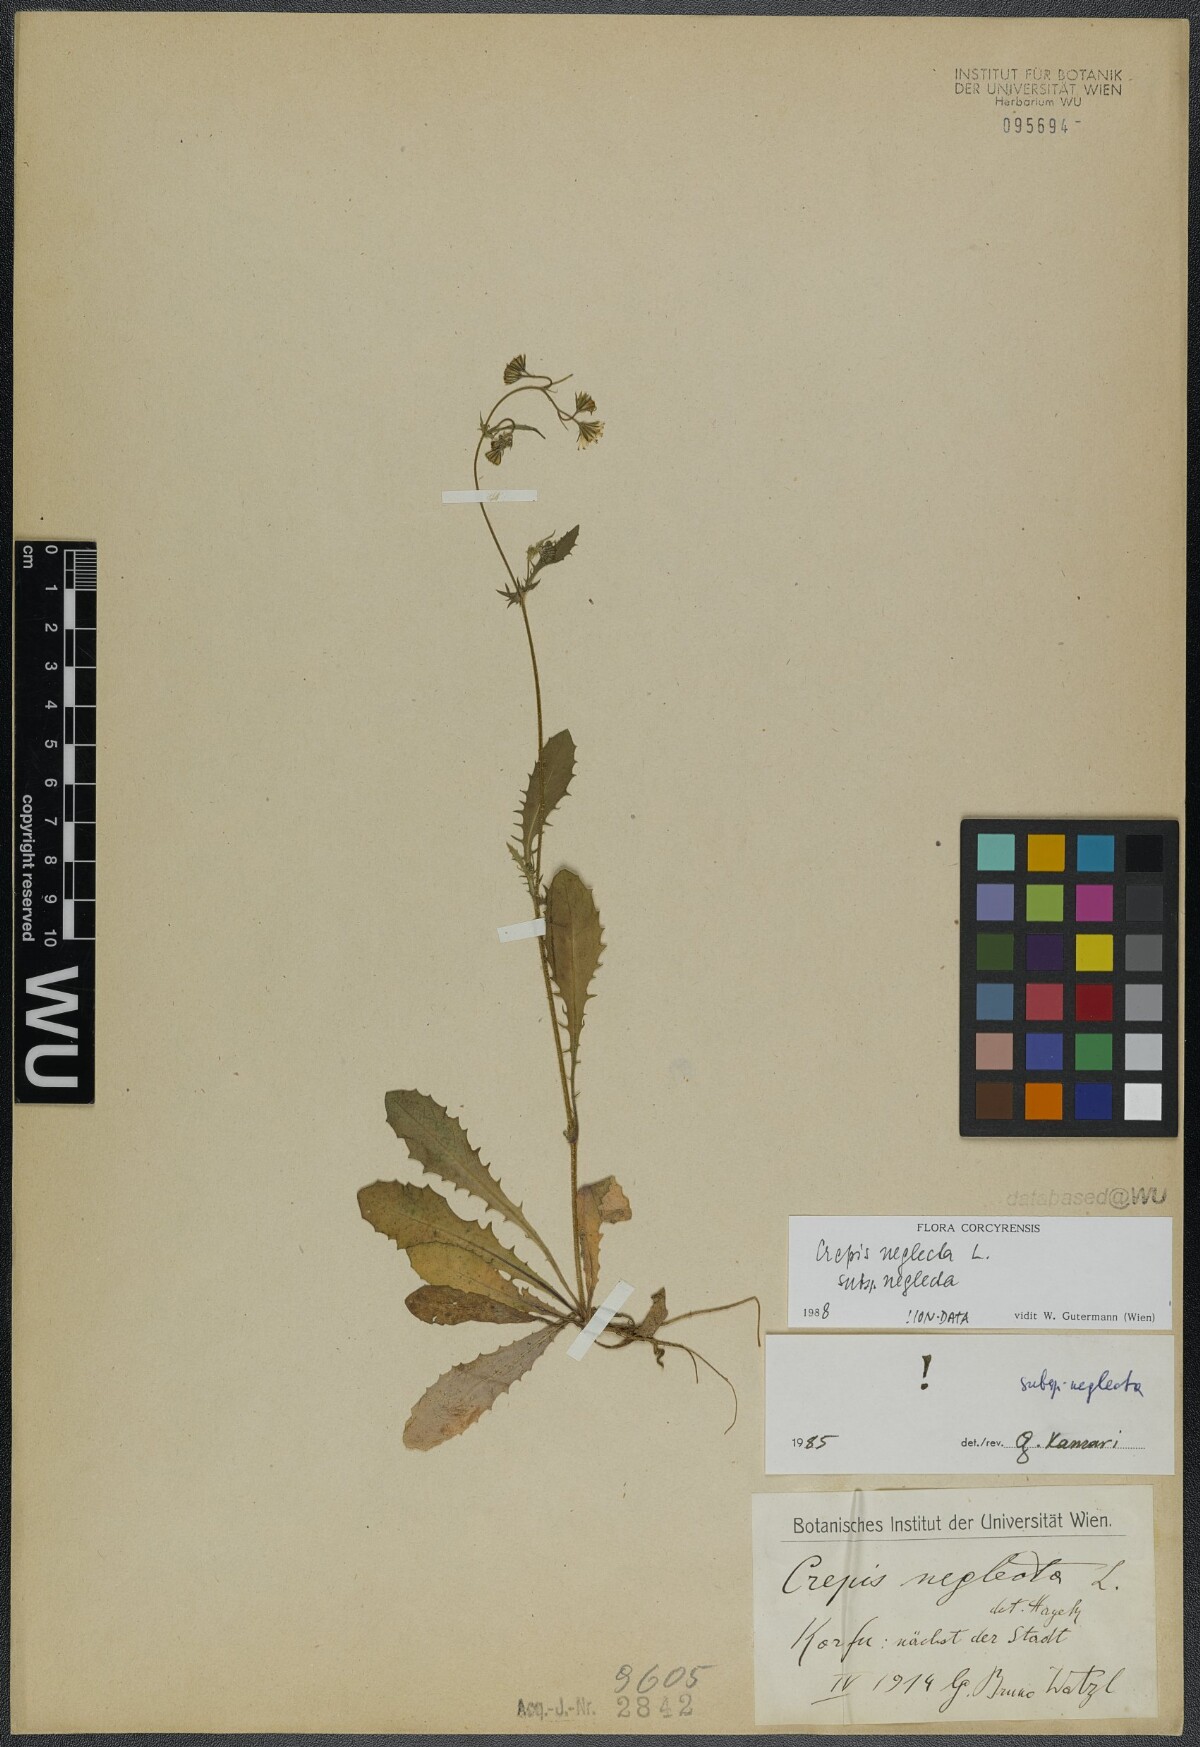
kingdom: Plantae
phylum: Tracheophyta
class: Magnoliopsida
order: Asterales
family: Asteraceae
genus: Crepis
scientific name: Crepis neglecta
